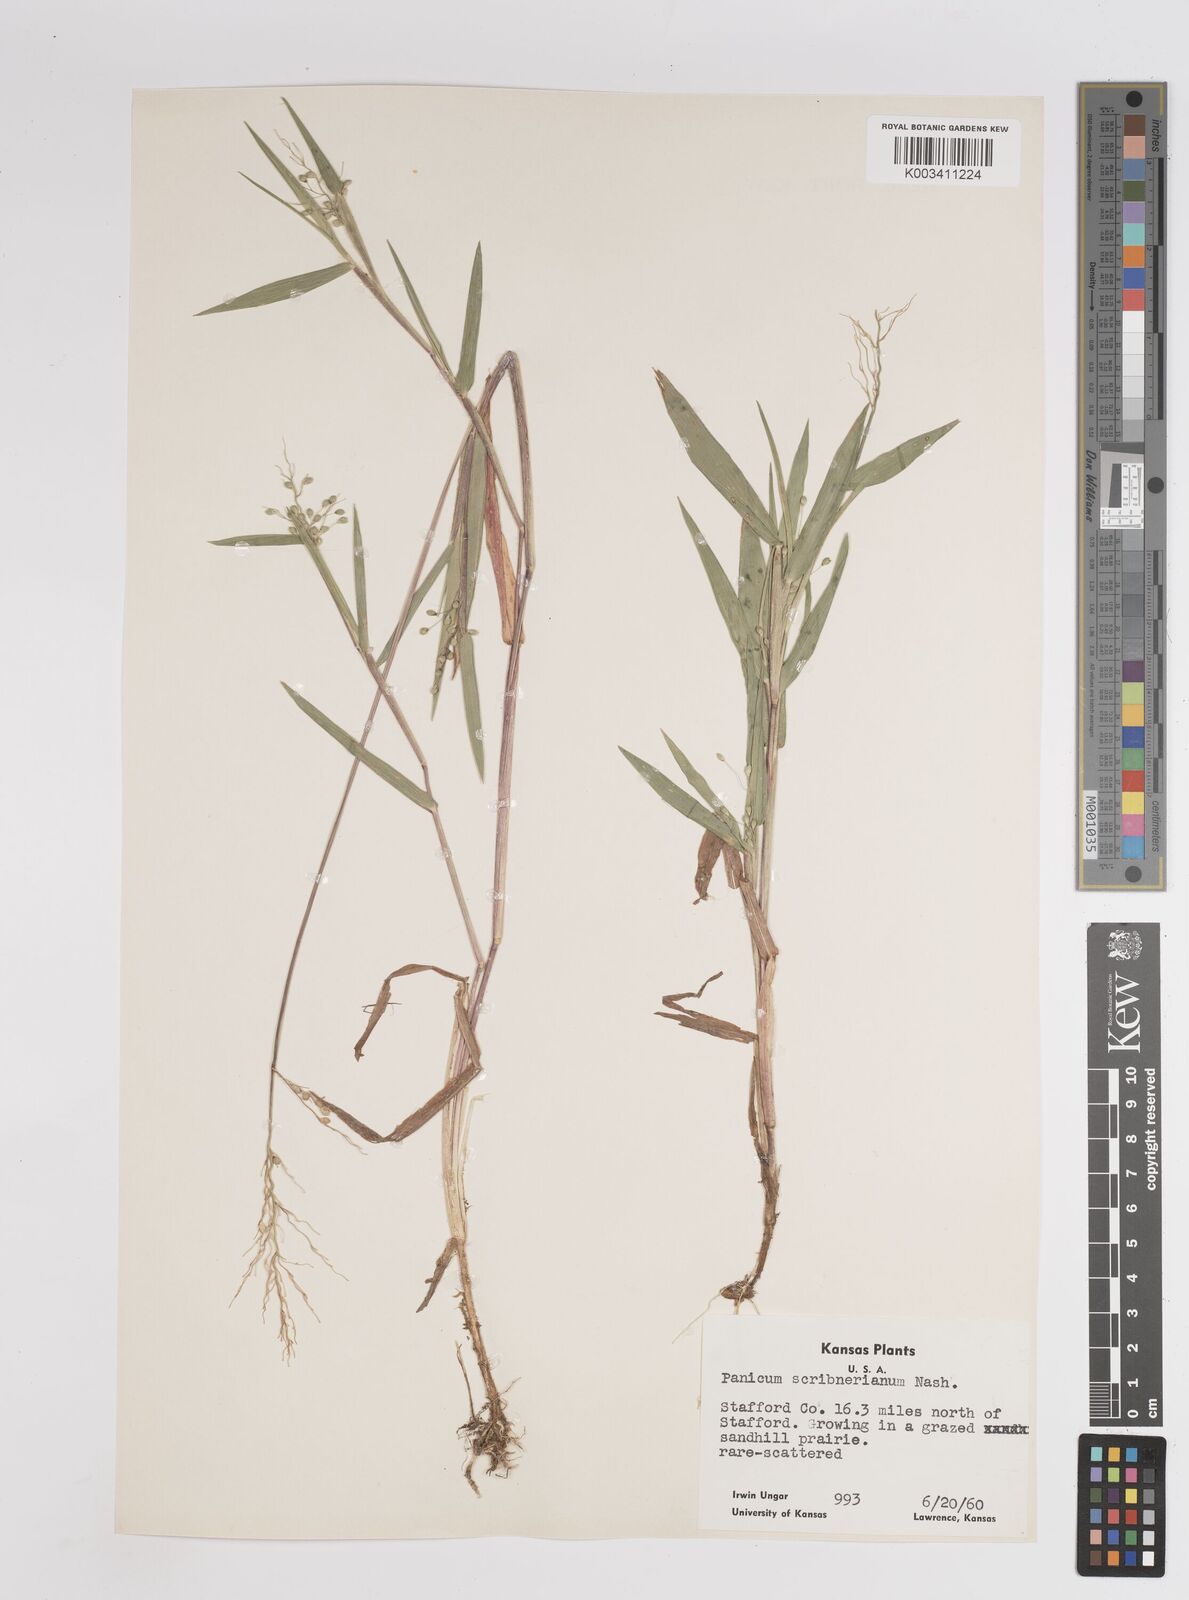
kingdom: Plantae
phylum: Tracheophyta
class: Liliopsida
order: Poales
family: Poaceae
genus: Dichanthelium
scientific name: Dichanthelium scribnerianum
